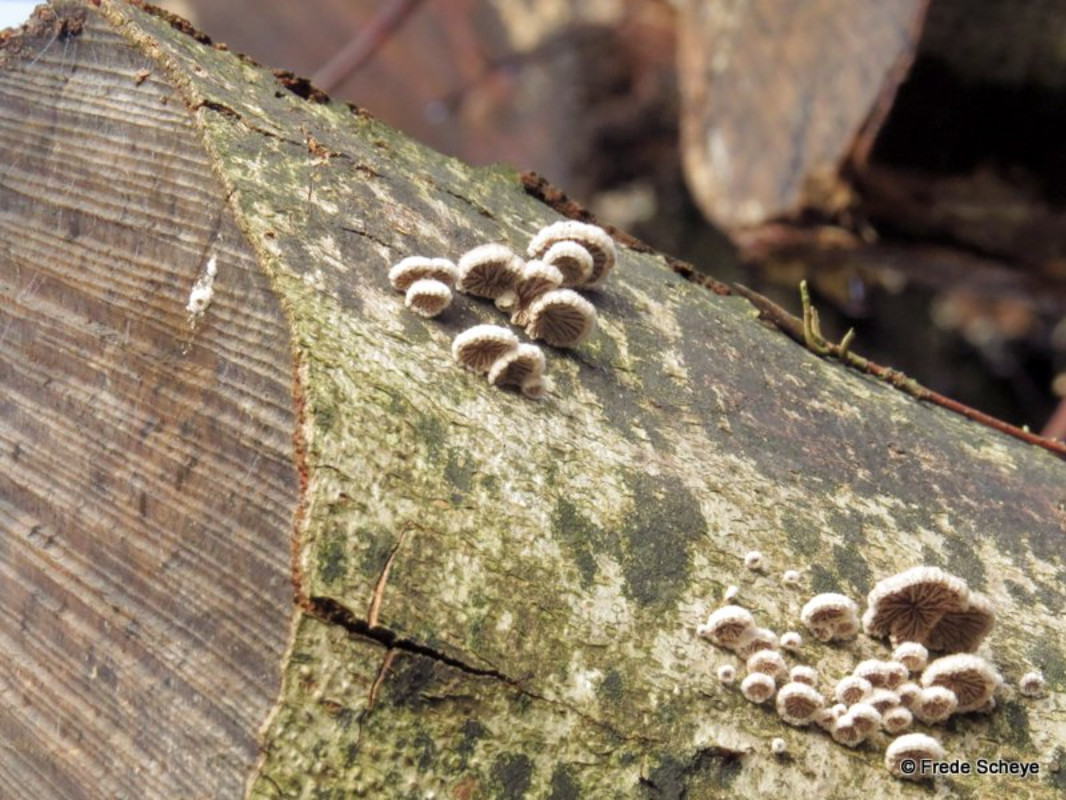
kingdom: Fungi
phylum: Basidiomycota
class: Agaricomycetes
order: Agaricales
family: Schizophyllaceae
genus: Schizophyllum
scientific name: Schizophyllum commune
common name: kløvblad
